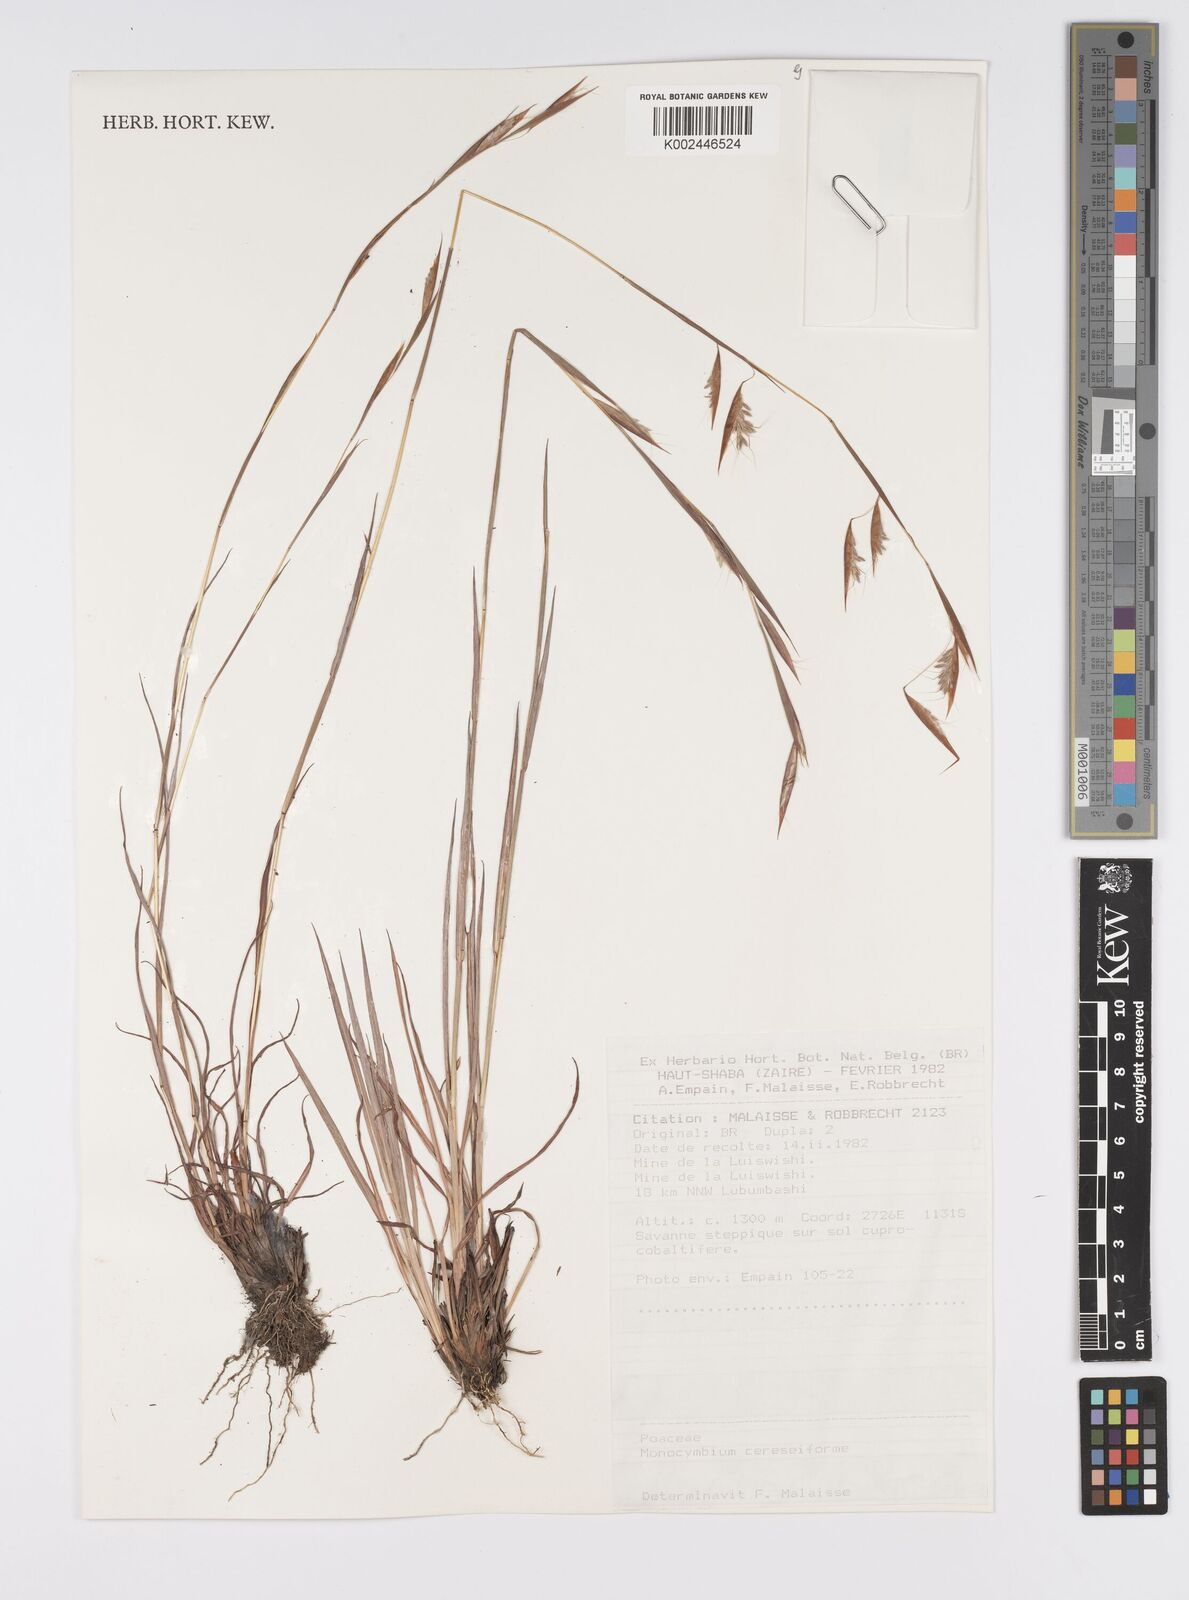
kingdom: Plantae
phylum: Tracheophyta
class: Liliopsida
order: Poales
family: Poaceae
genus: Monocymbium
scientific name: Monocymbium ceresiiforme
